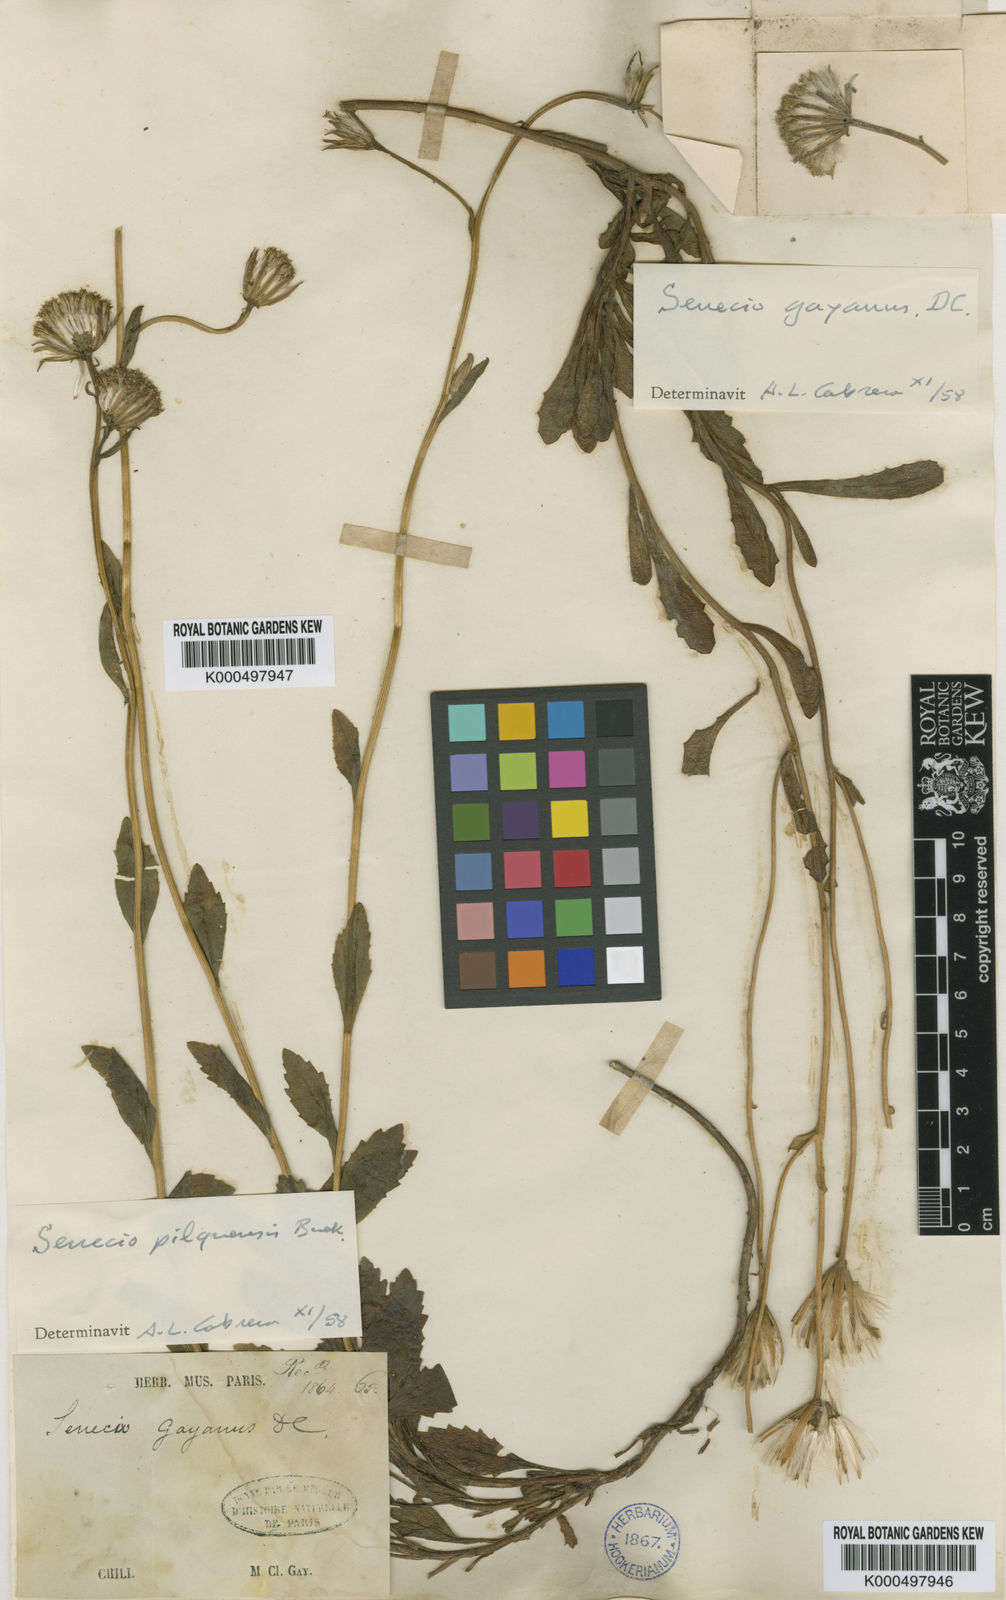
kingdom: Plantae
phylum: Tracheophyta
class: Magnoliopsida
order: Asterales
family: Asteraceae
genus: Senecio
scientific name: Senecio gayanus
